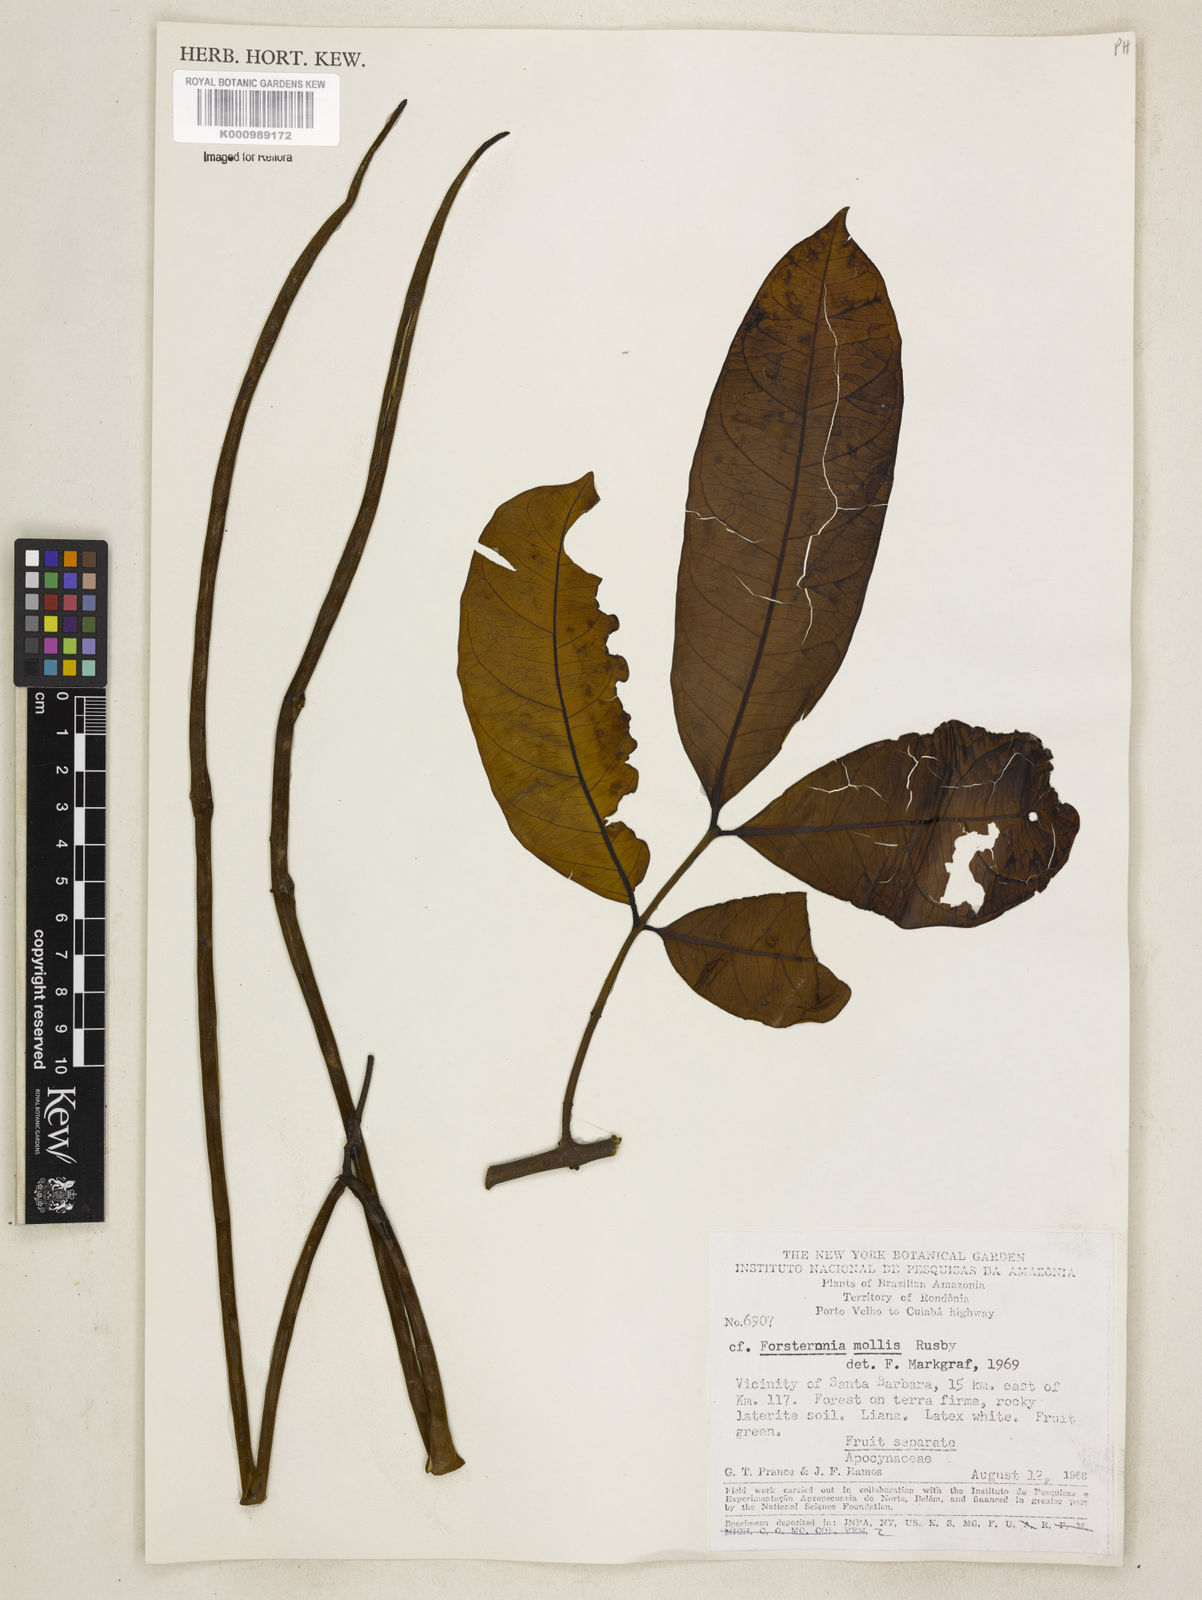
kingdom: Plantae
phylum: Tracheophyta
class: Magnoliopsida
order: Gentianales
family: Apocynaceae
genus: Forsteronia
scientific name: Forsteronia mollis
